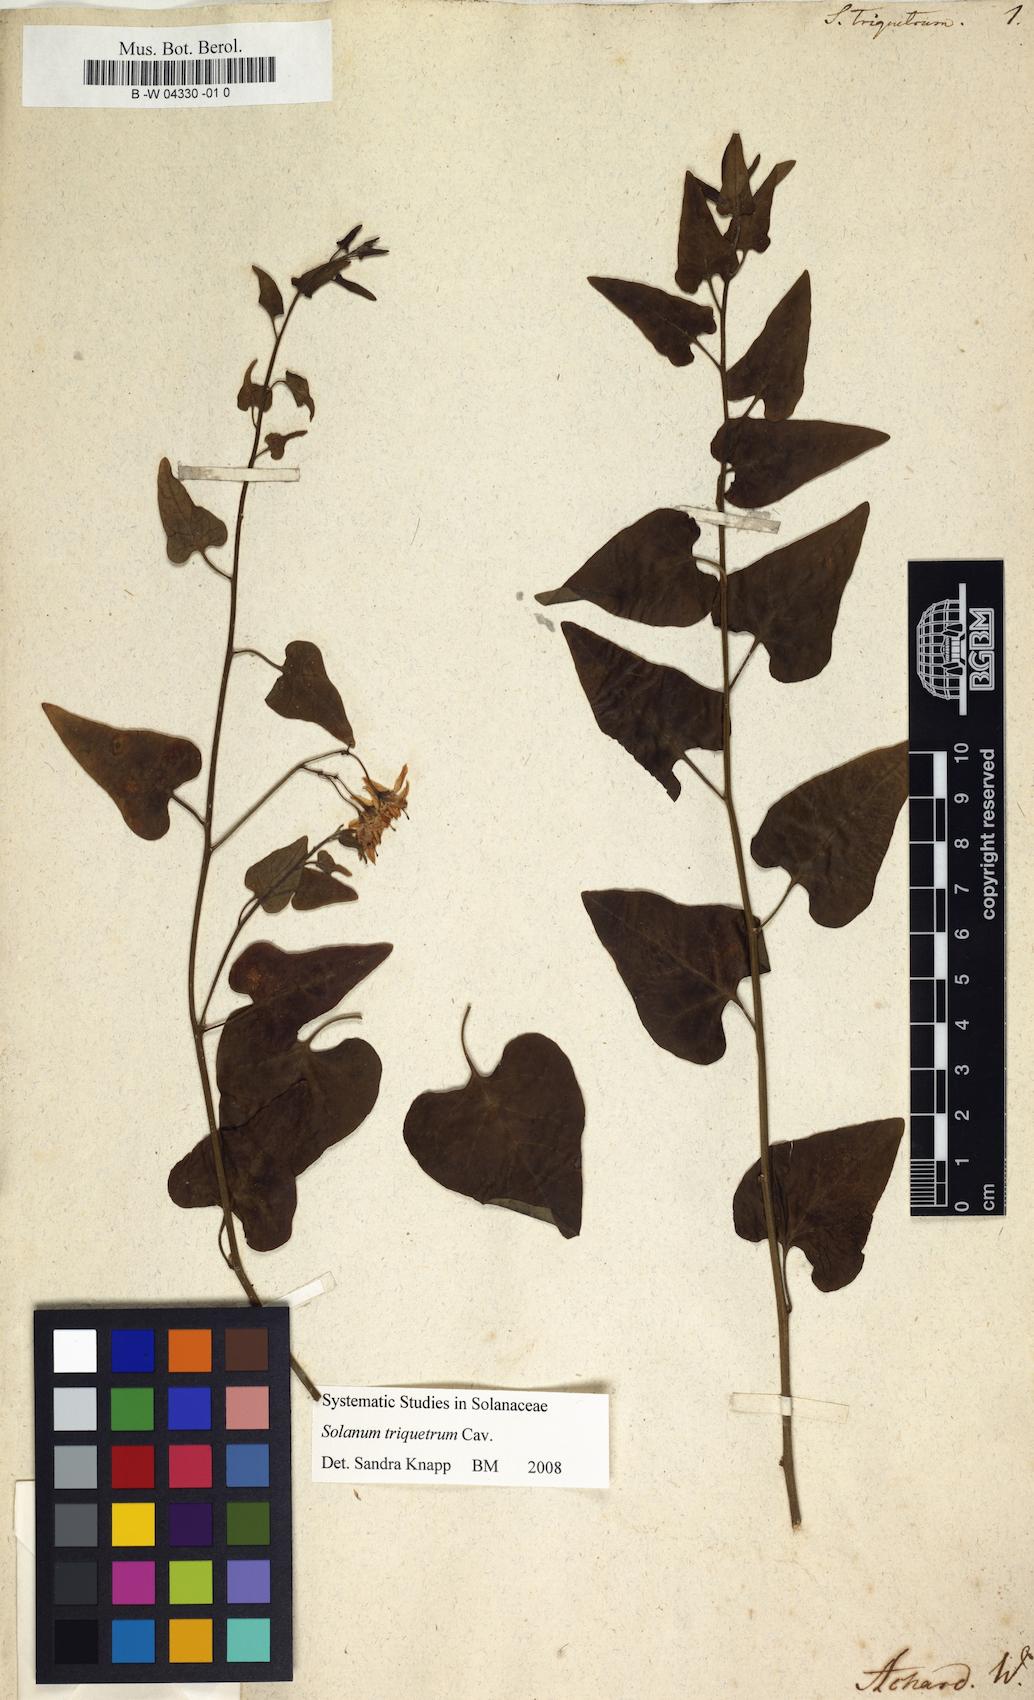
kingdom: Plantae
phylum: Tracheophyta
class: Magnoliopsida
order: Solanales
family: Solanaceae
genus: Solanum
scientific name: Solanum triquetrum
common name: Texas nightshade
